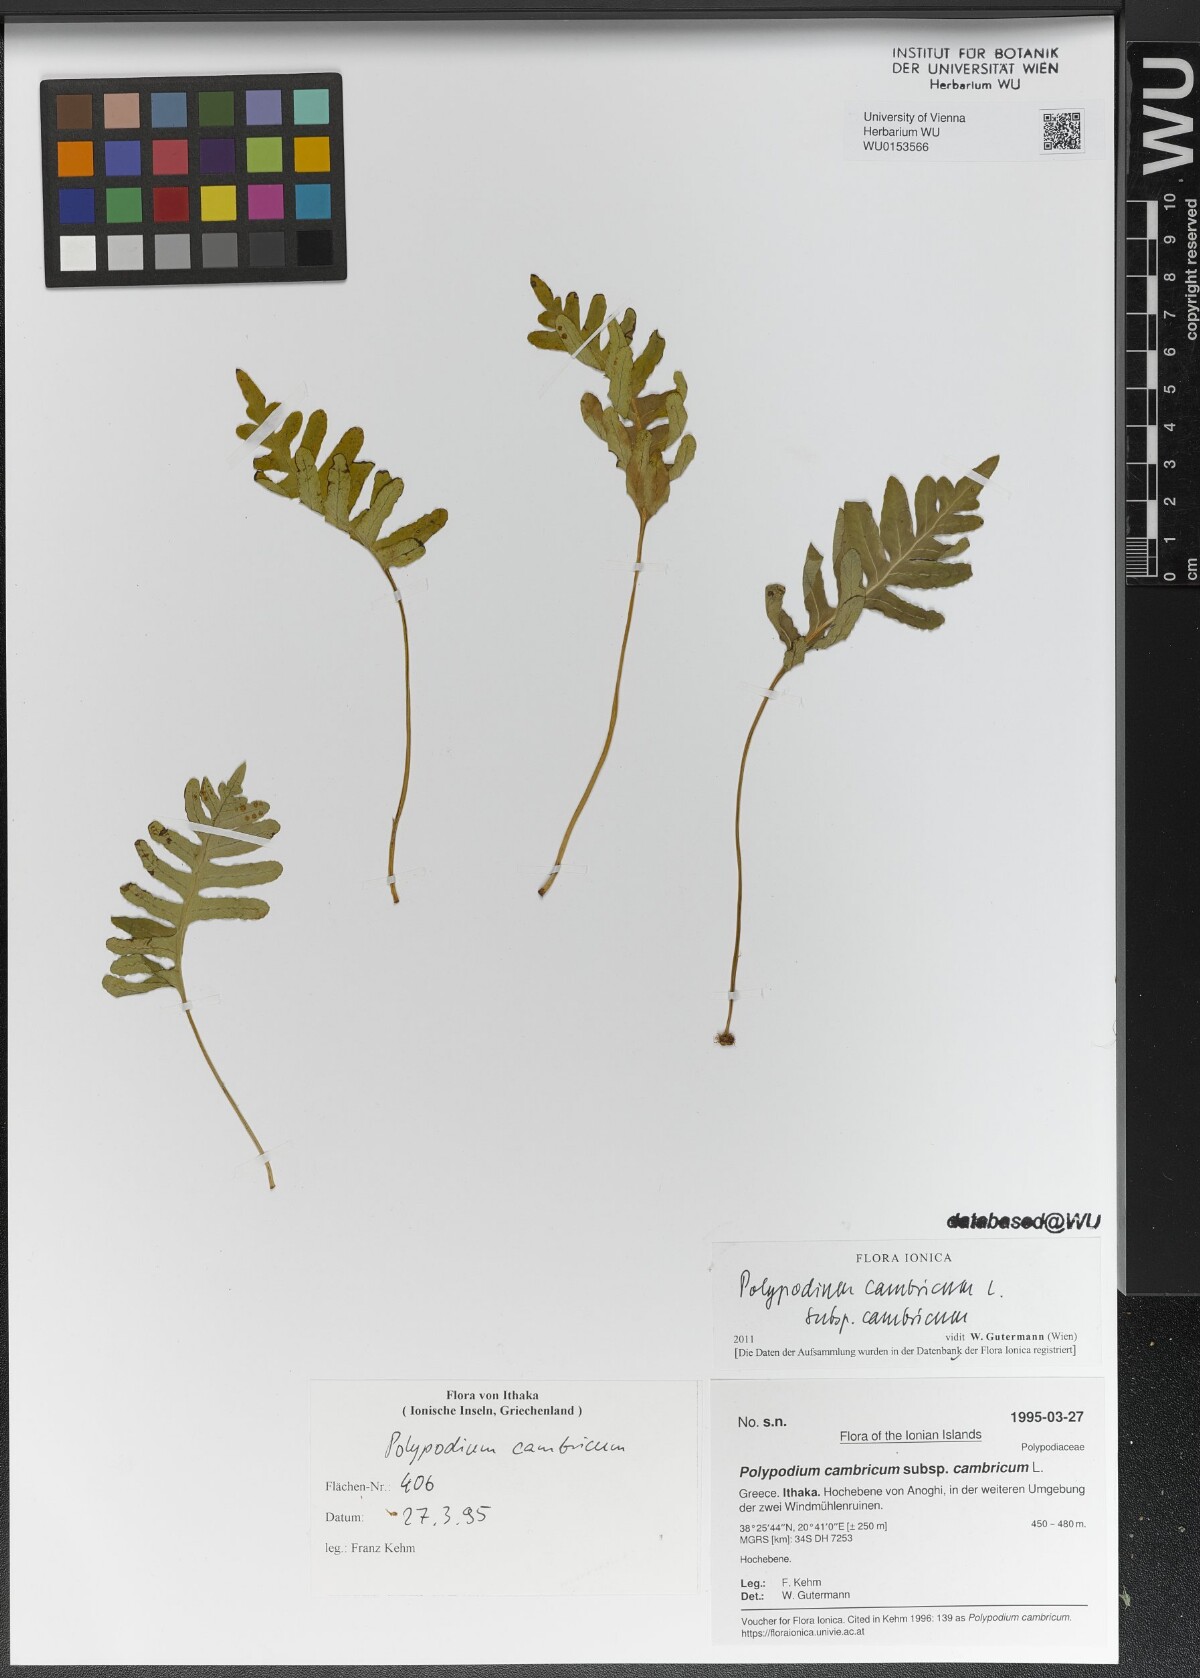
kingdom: Plantae
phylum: Tracheophyta
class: Polypodiopsida
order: Polypodiales
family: Polypodiaceae
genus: Polypodium
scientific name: Polypodium cambricum
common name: Southern polypody
